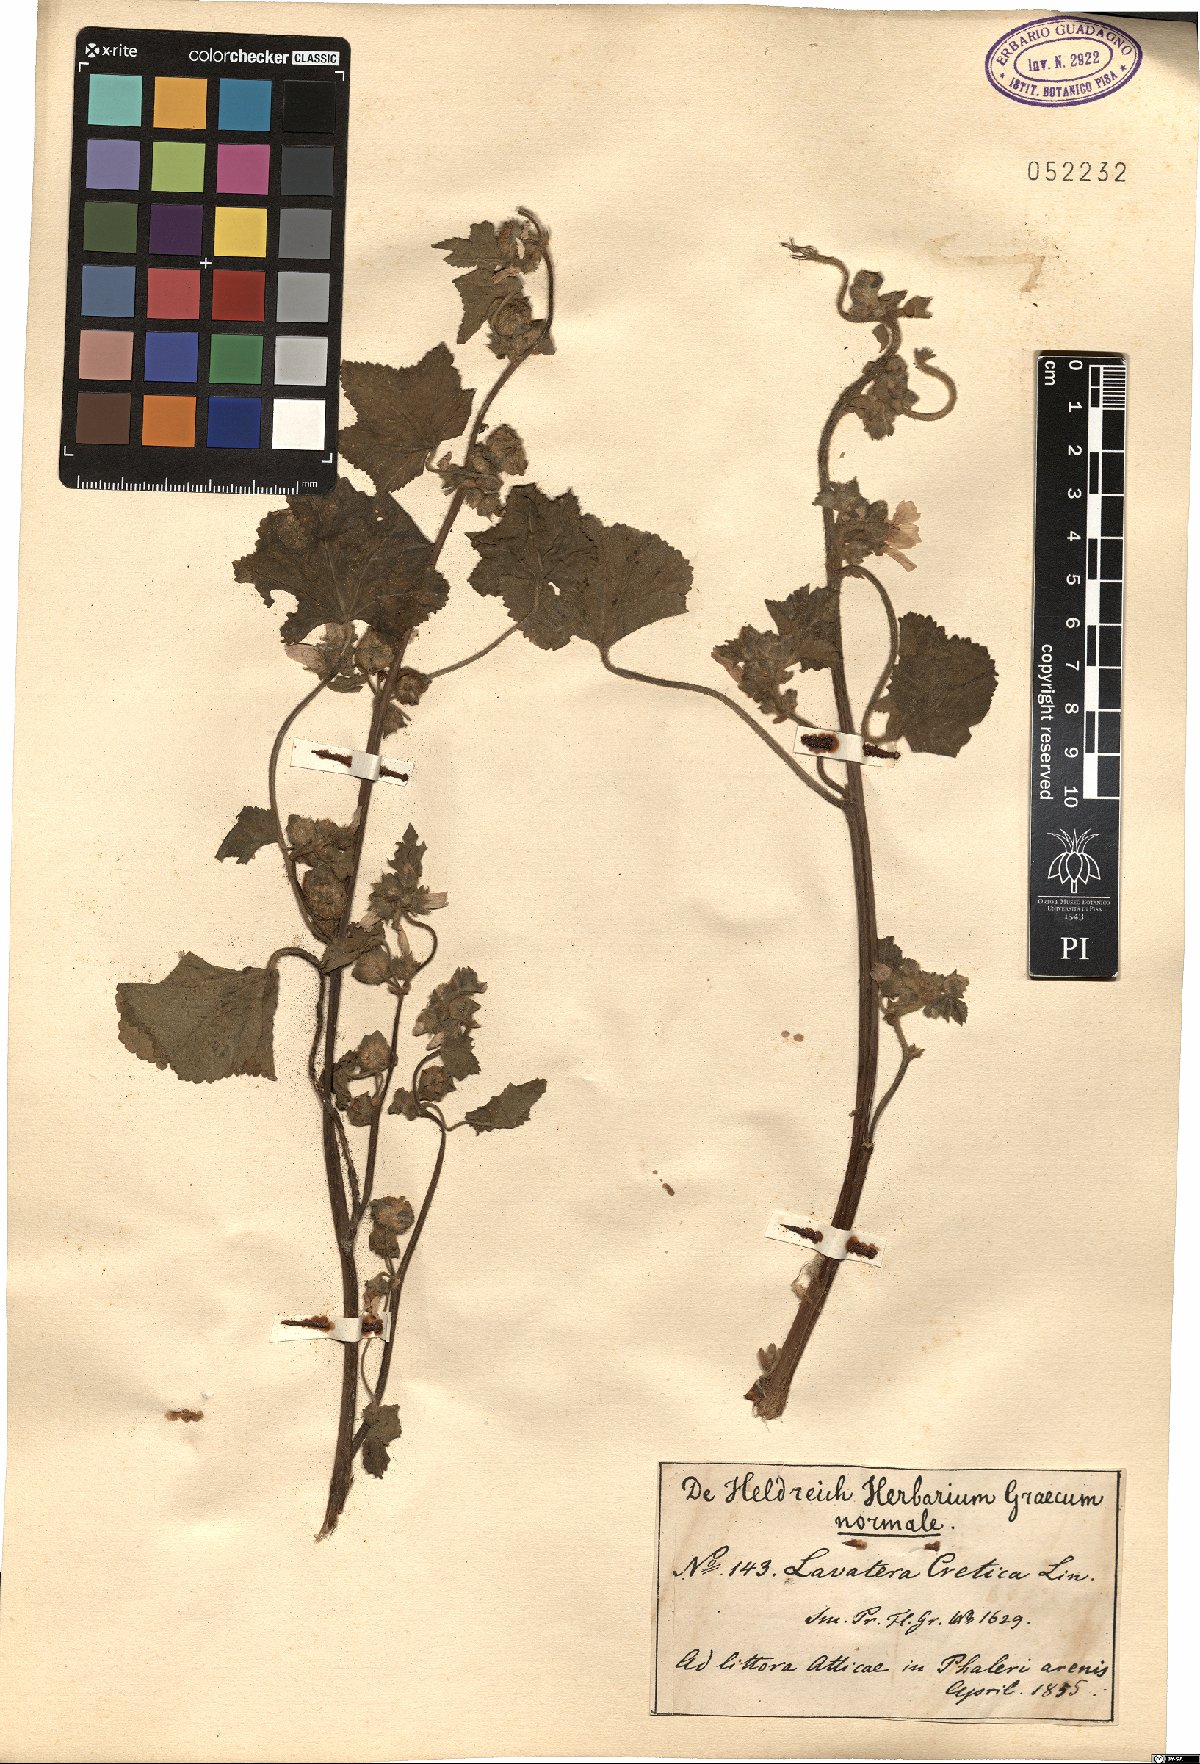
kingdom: Plantae
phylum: Tracheophyta
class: Magnoliopsida
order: Malvales
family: Malvaceae
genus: Malva
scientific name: Malva multiflora
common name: Cheeseweed
